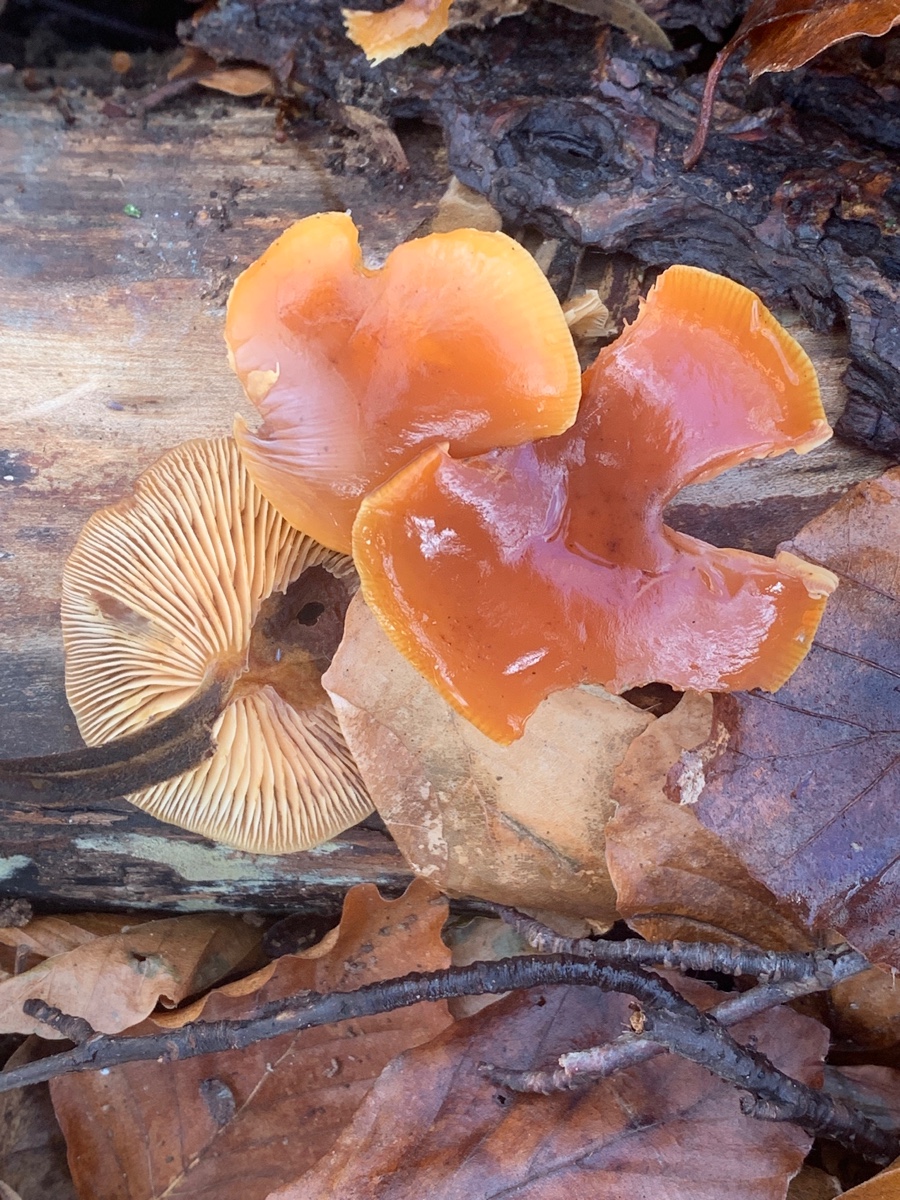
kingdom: Fungi
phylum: Basidiomycota
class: Agaricomycetes
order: Agaricales
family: Physalacriaceae
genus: Flammulina
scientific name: Flammulina velutipes
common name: gul fløjlsfod
